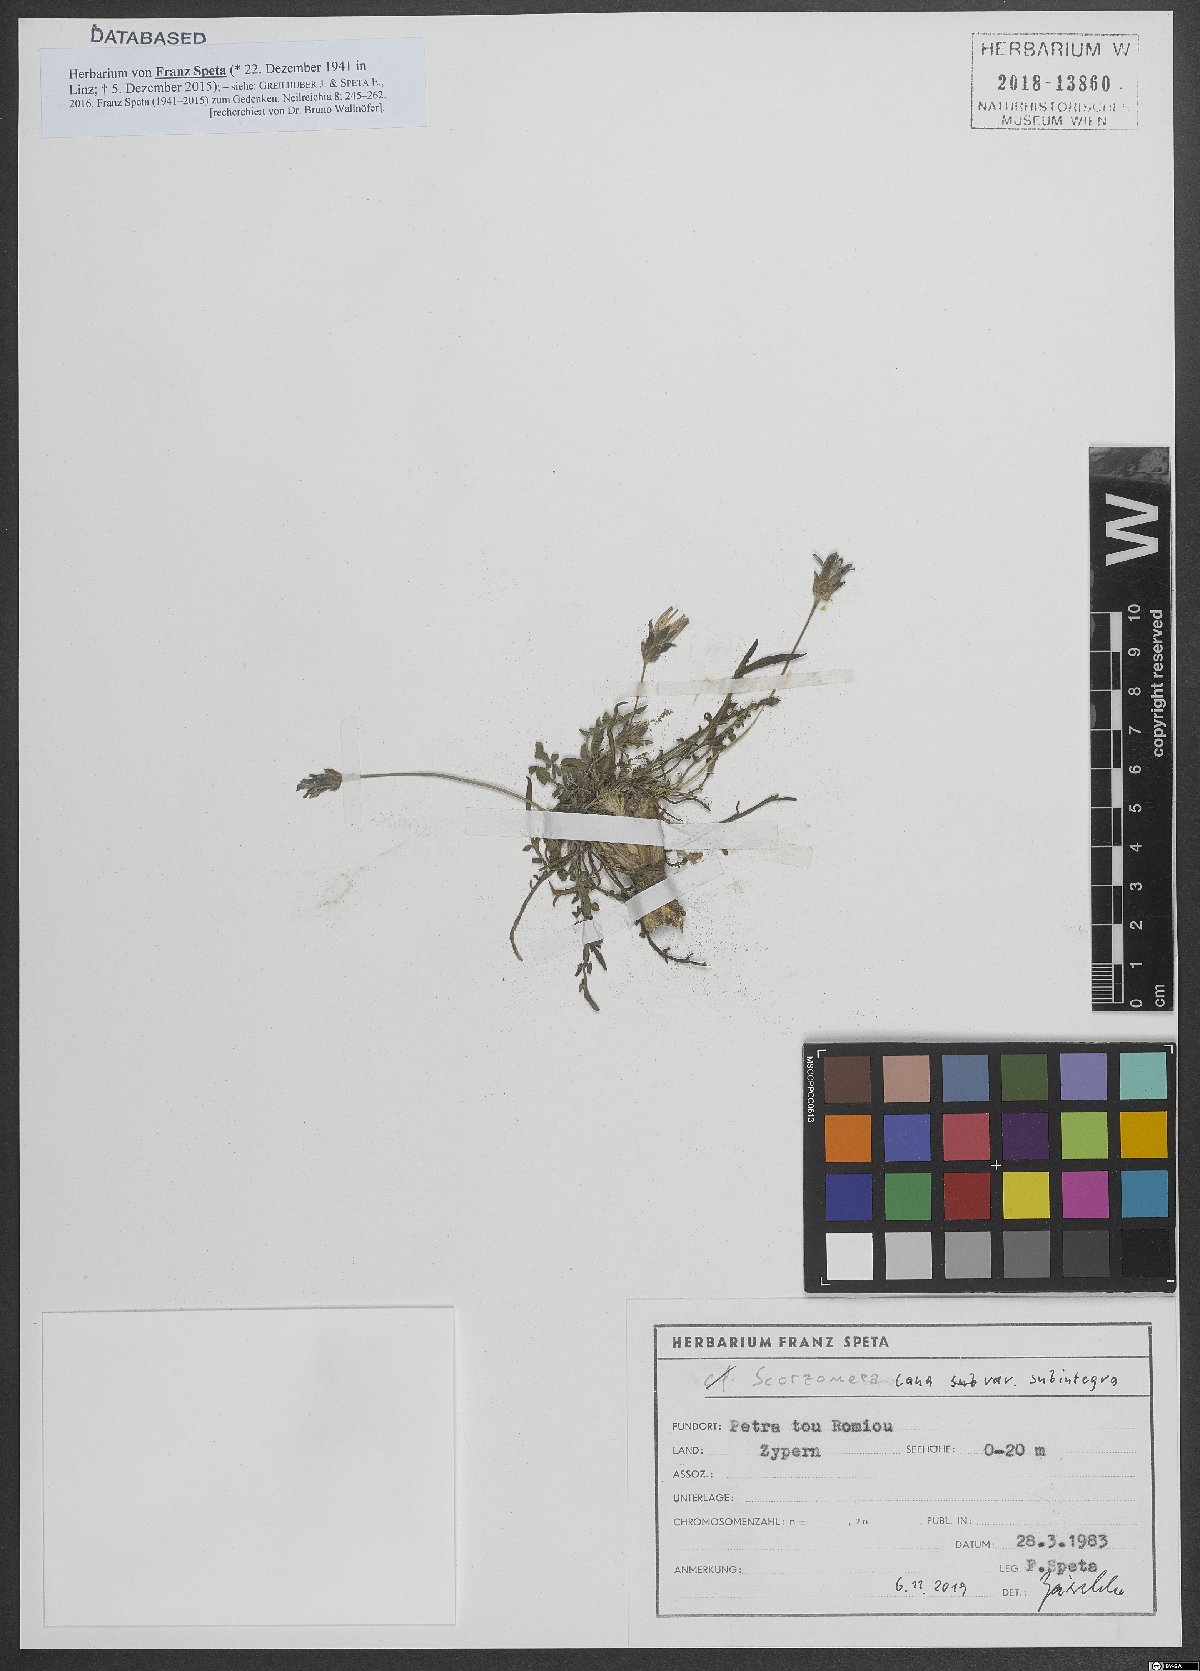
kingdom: Plantae
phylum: Tracheophyta
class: Magnoliopsida
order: Asterales
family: Asteraceae
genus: Scorzonera
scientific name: Scorzonera alpigena
